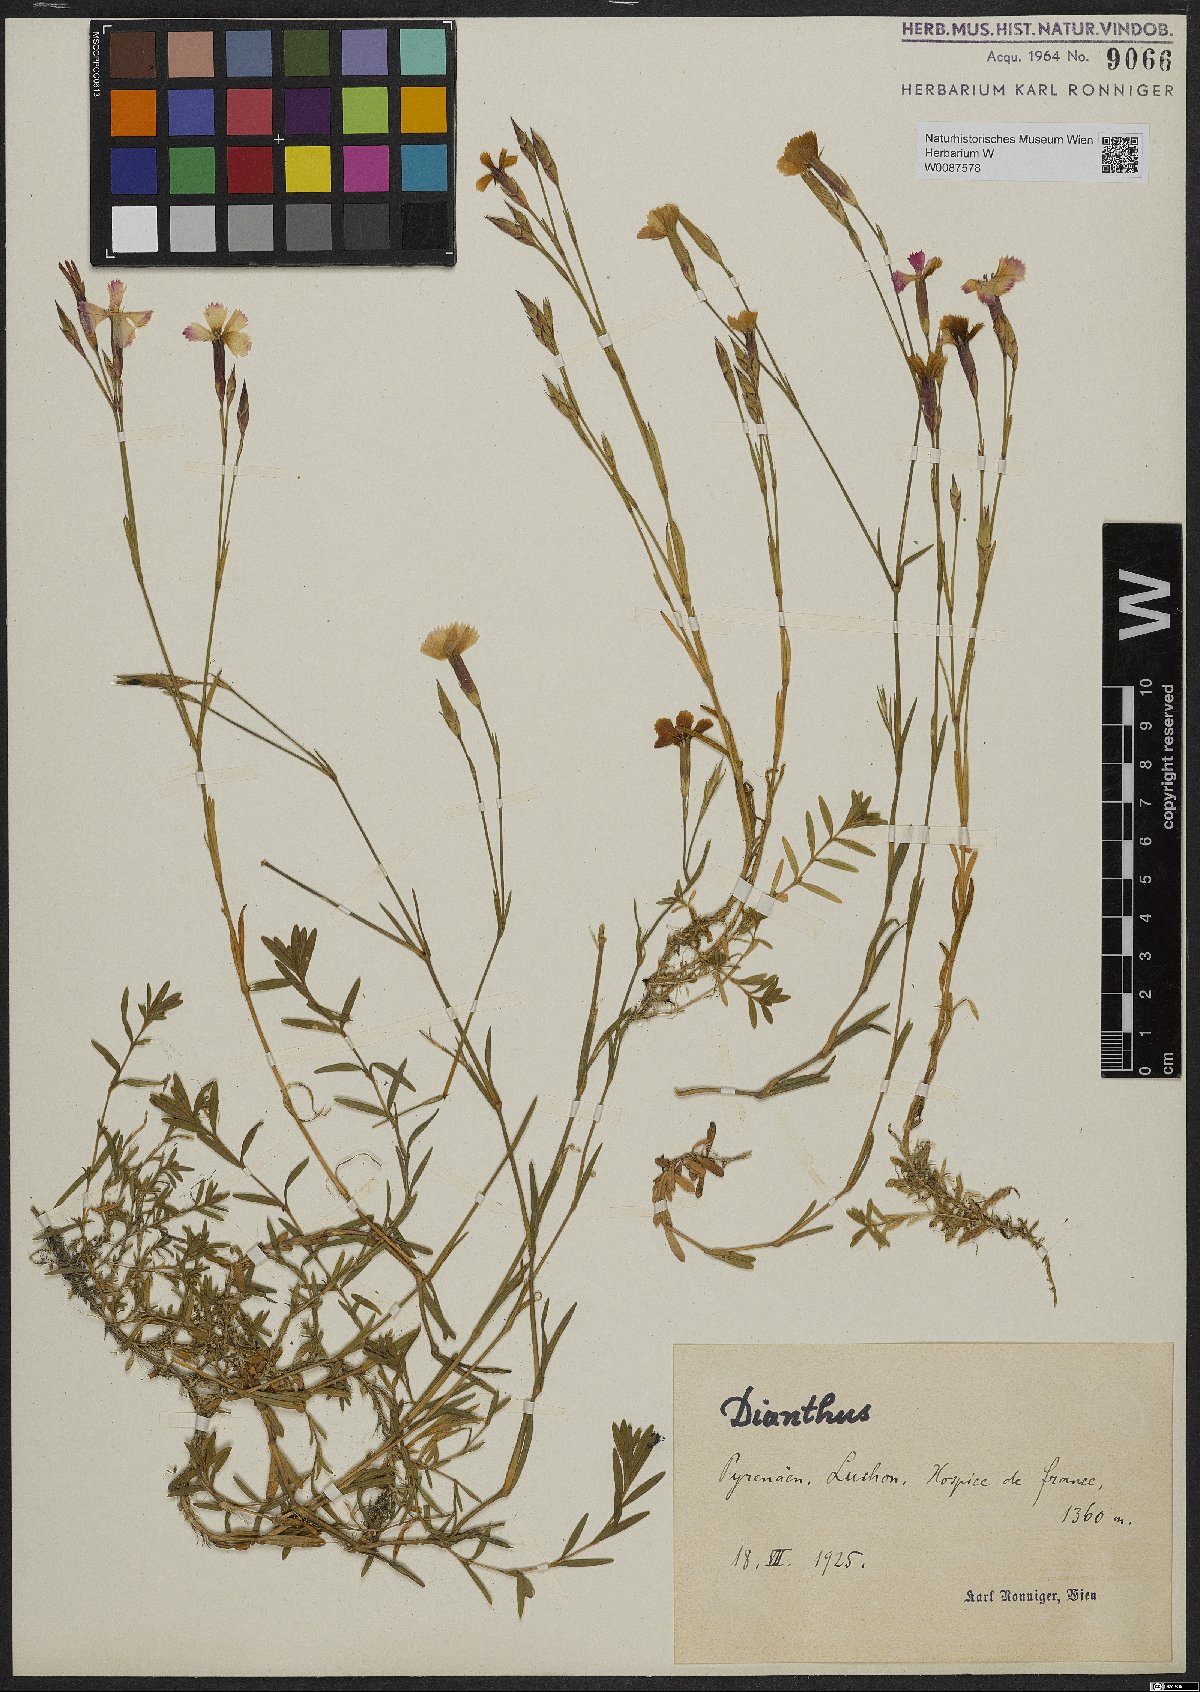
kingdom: Plantae
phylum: Tracheophyta
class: Magnoliopsida
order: Caryophyllales
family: Caryophyllaceae
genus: Dianthus
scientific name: Dianthus
